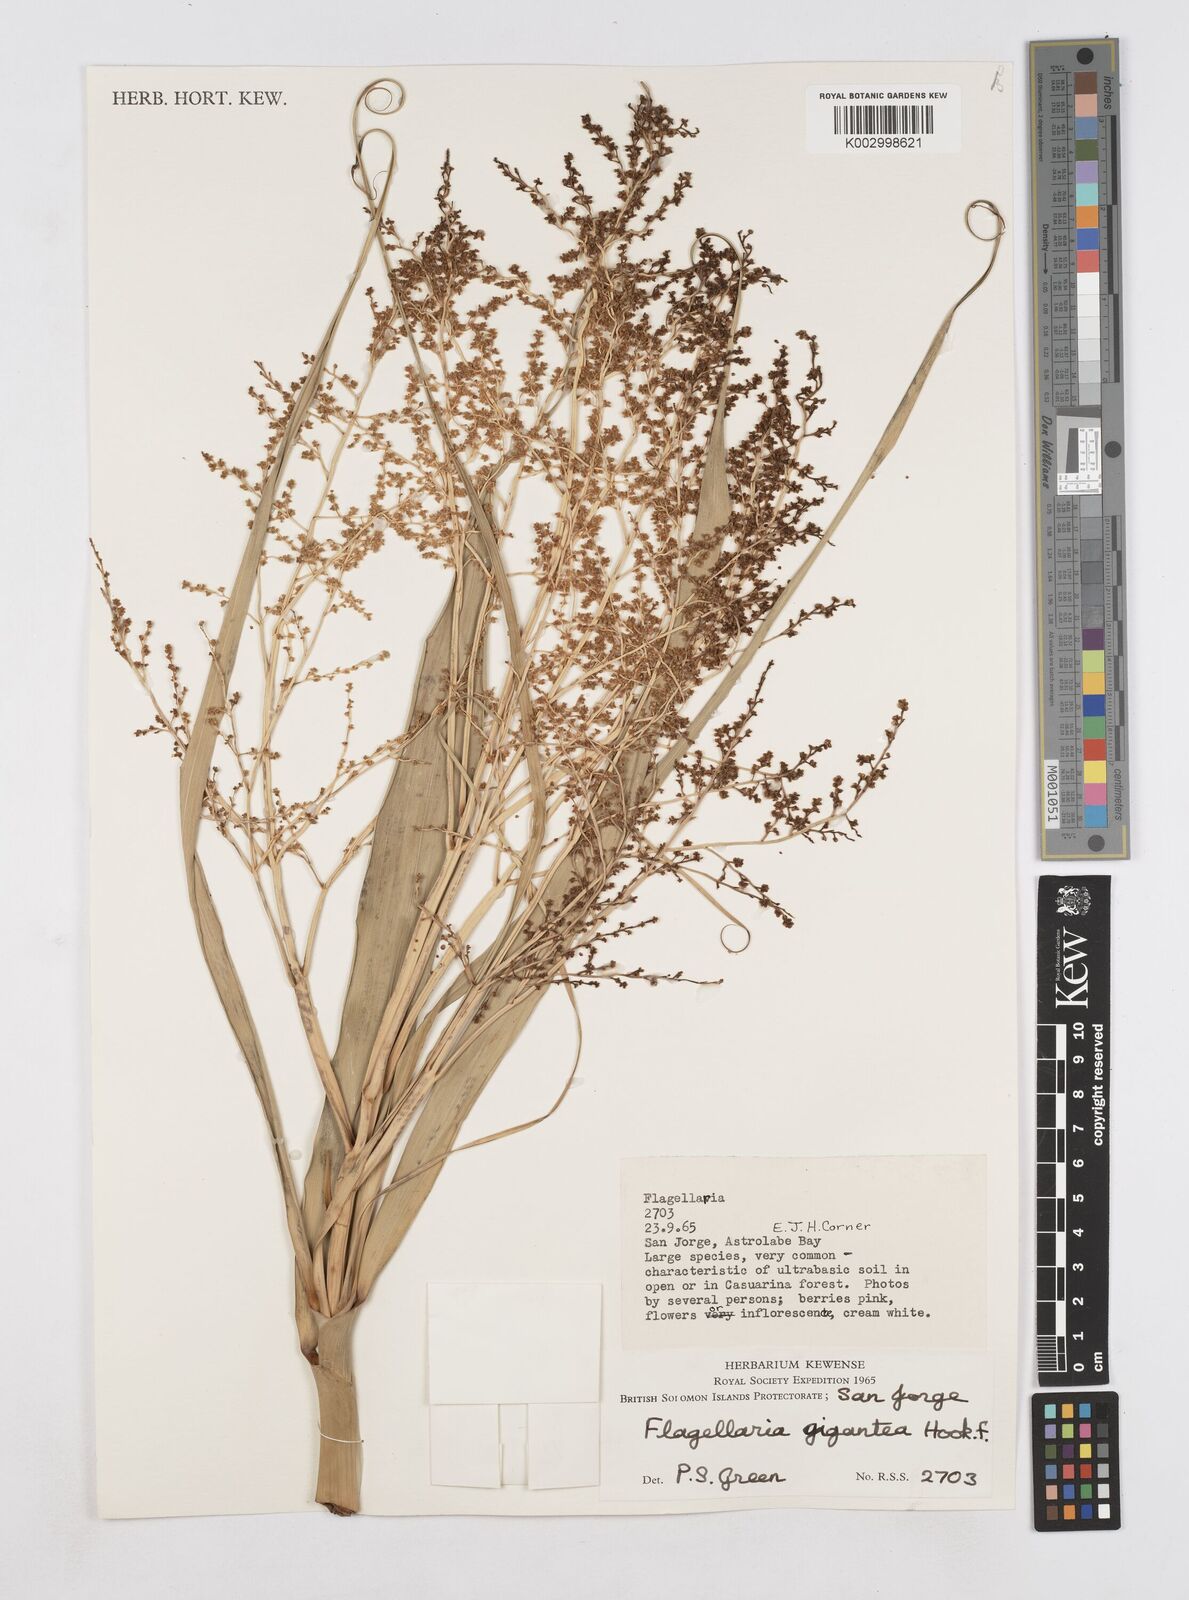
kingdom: Plantae
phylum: Tracheophyta
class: Liliopsida
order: Poales
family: Flagellariaceae
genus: Flagellaria
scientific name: Flagellaria gigantea
